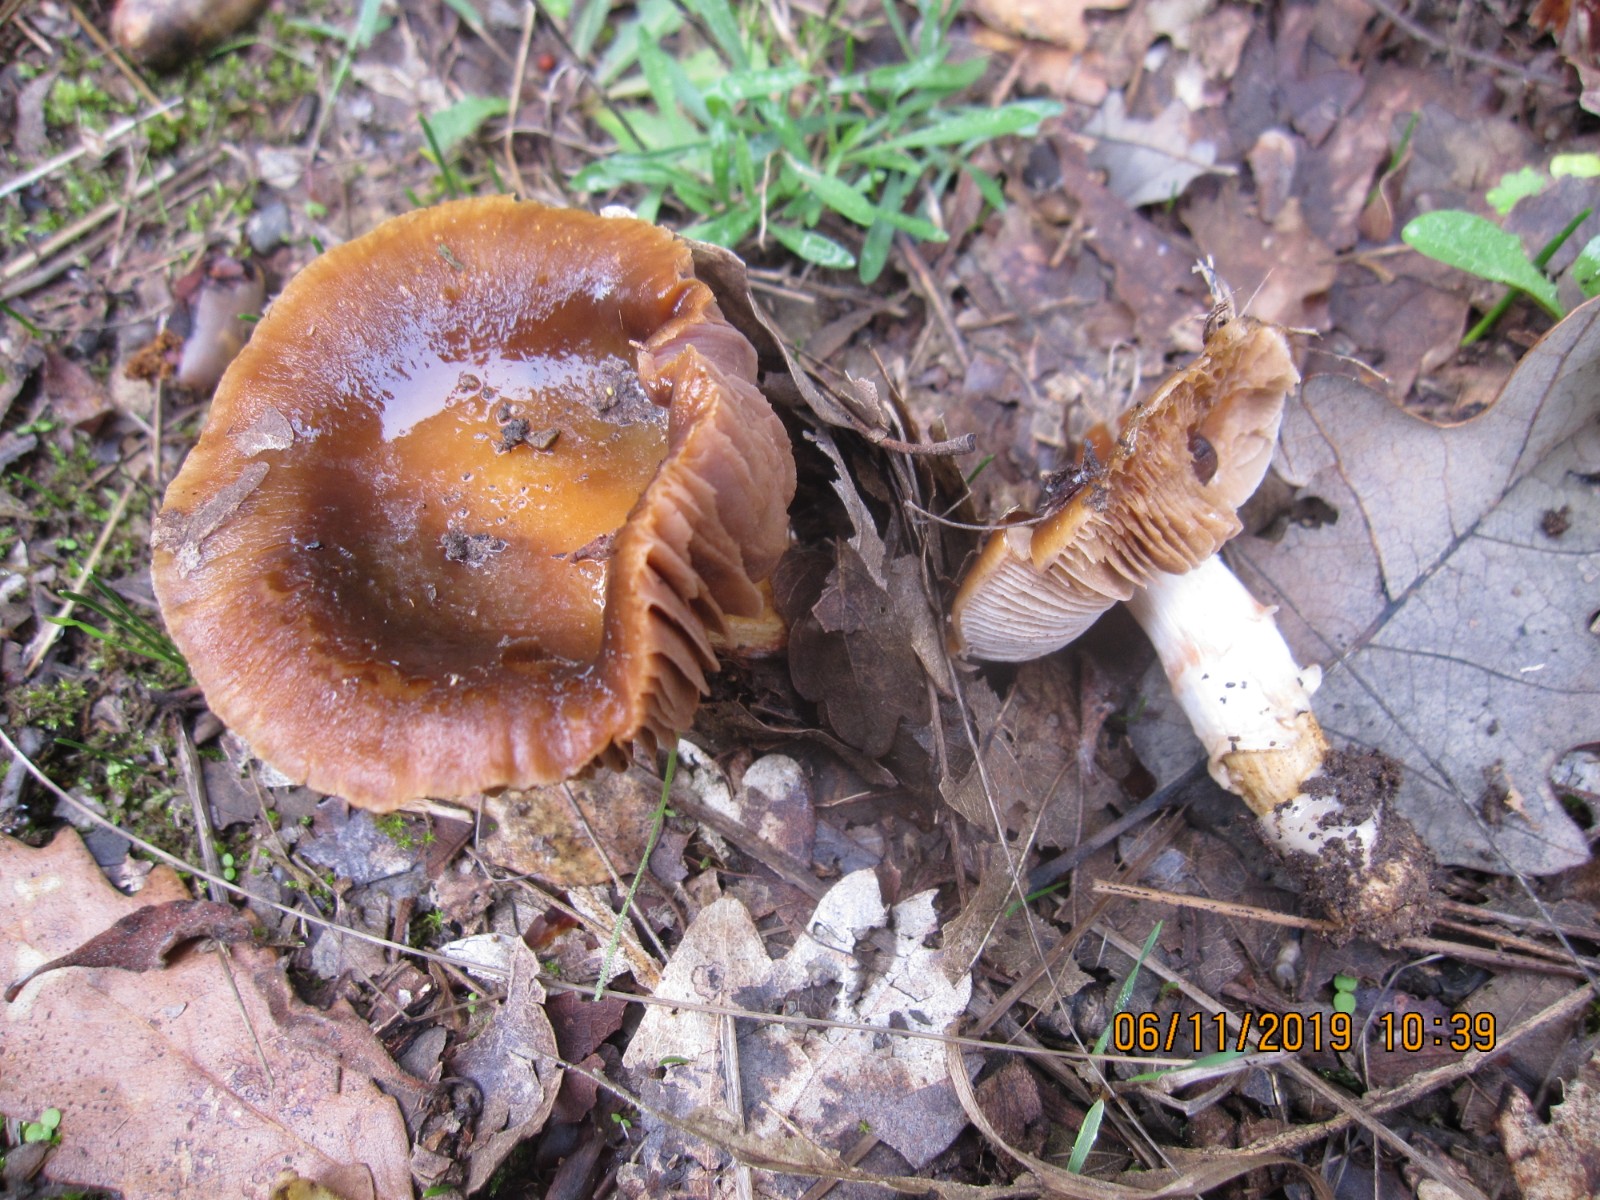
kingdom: Fungi
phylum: Basidiomycota
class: Agaricomycetes
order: Agaricales
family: Cortinariaceae
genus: Cortinarius
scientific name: Cortinarius trivialis
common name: brunslimet slørhat
